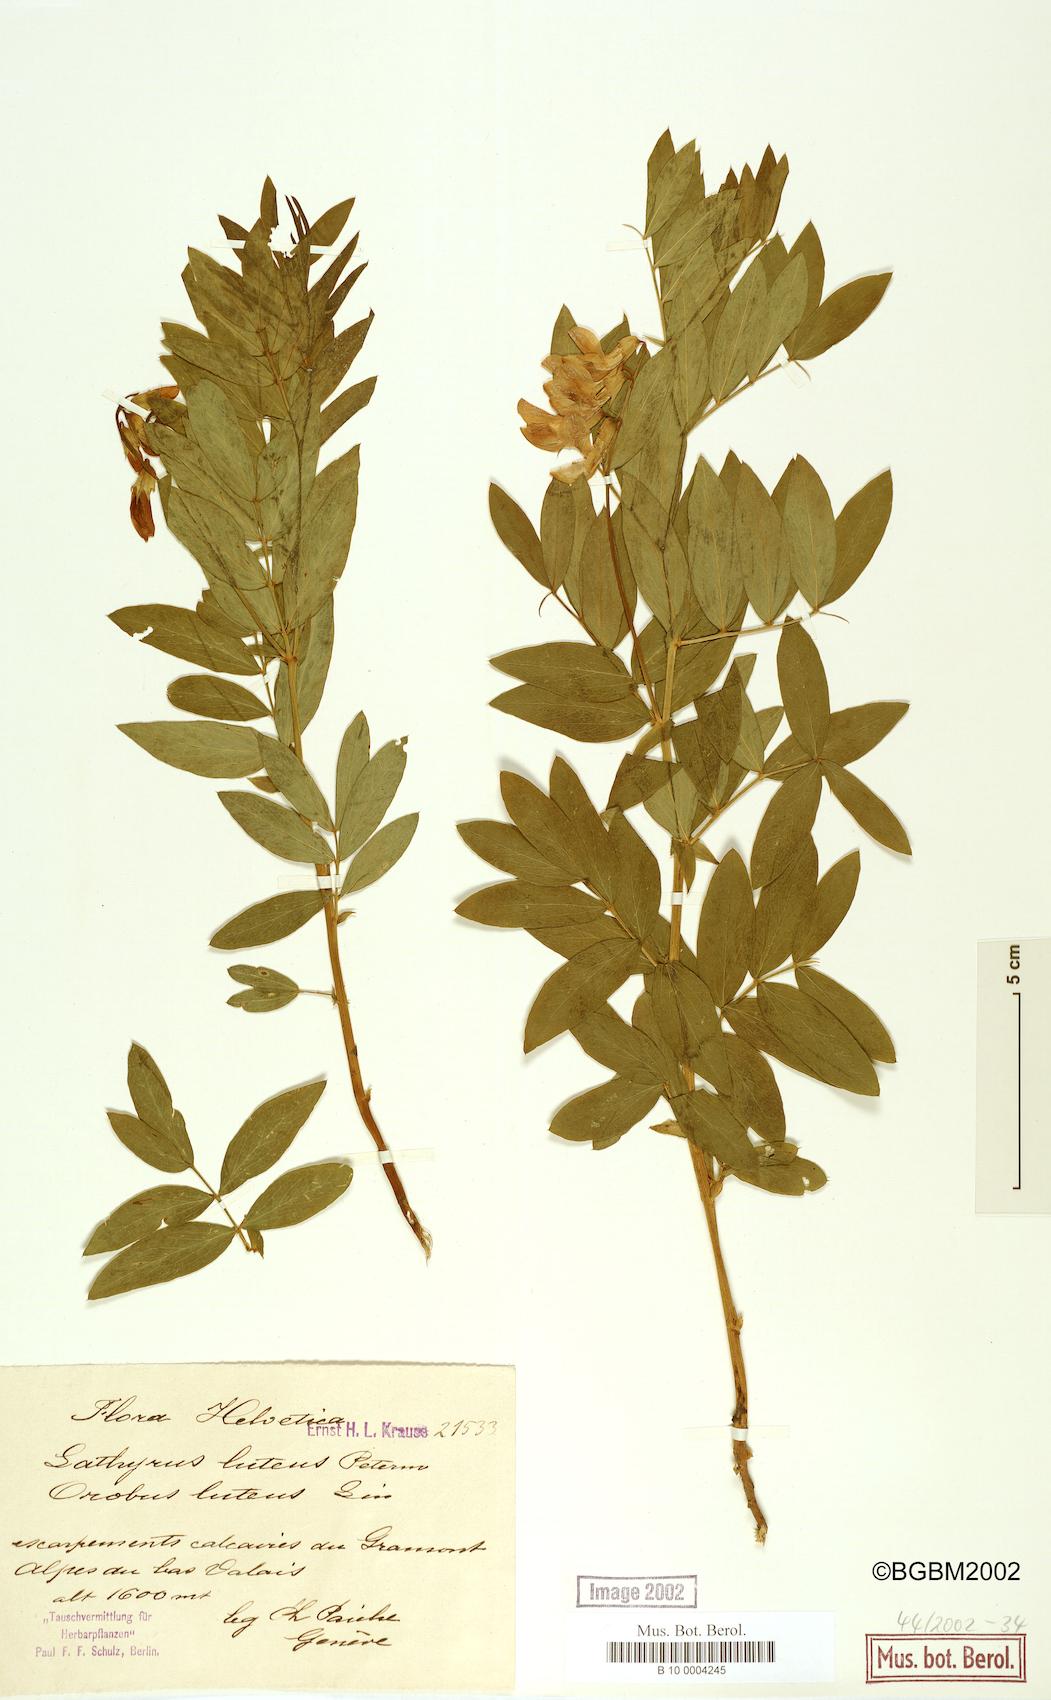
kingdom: Plantae
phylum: Tracheophyta
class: Magnoliopsida
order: Fabales
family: Fabaceae
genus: Lathyrus
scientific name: Lathyrus
